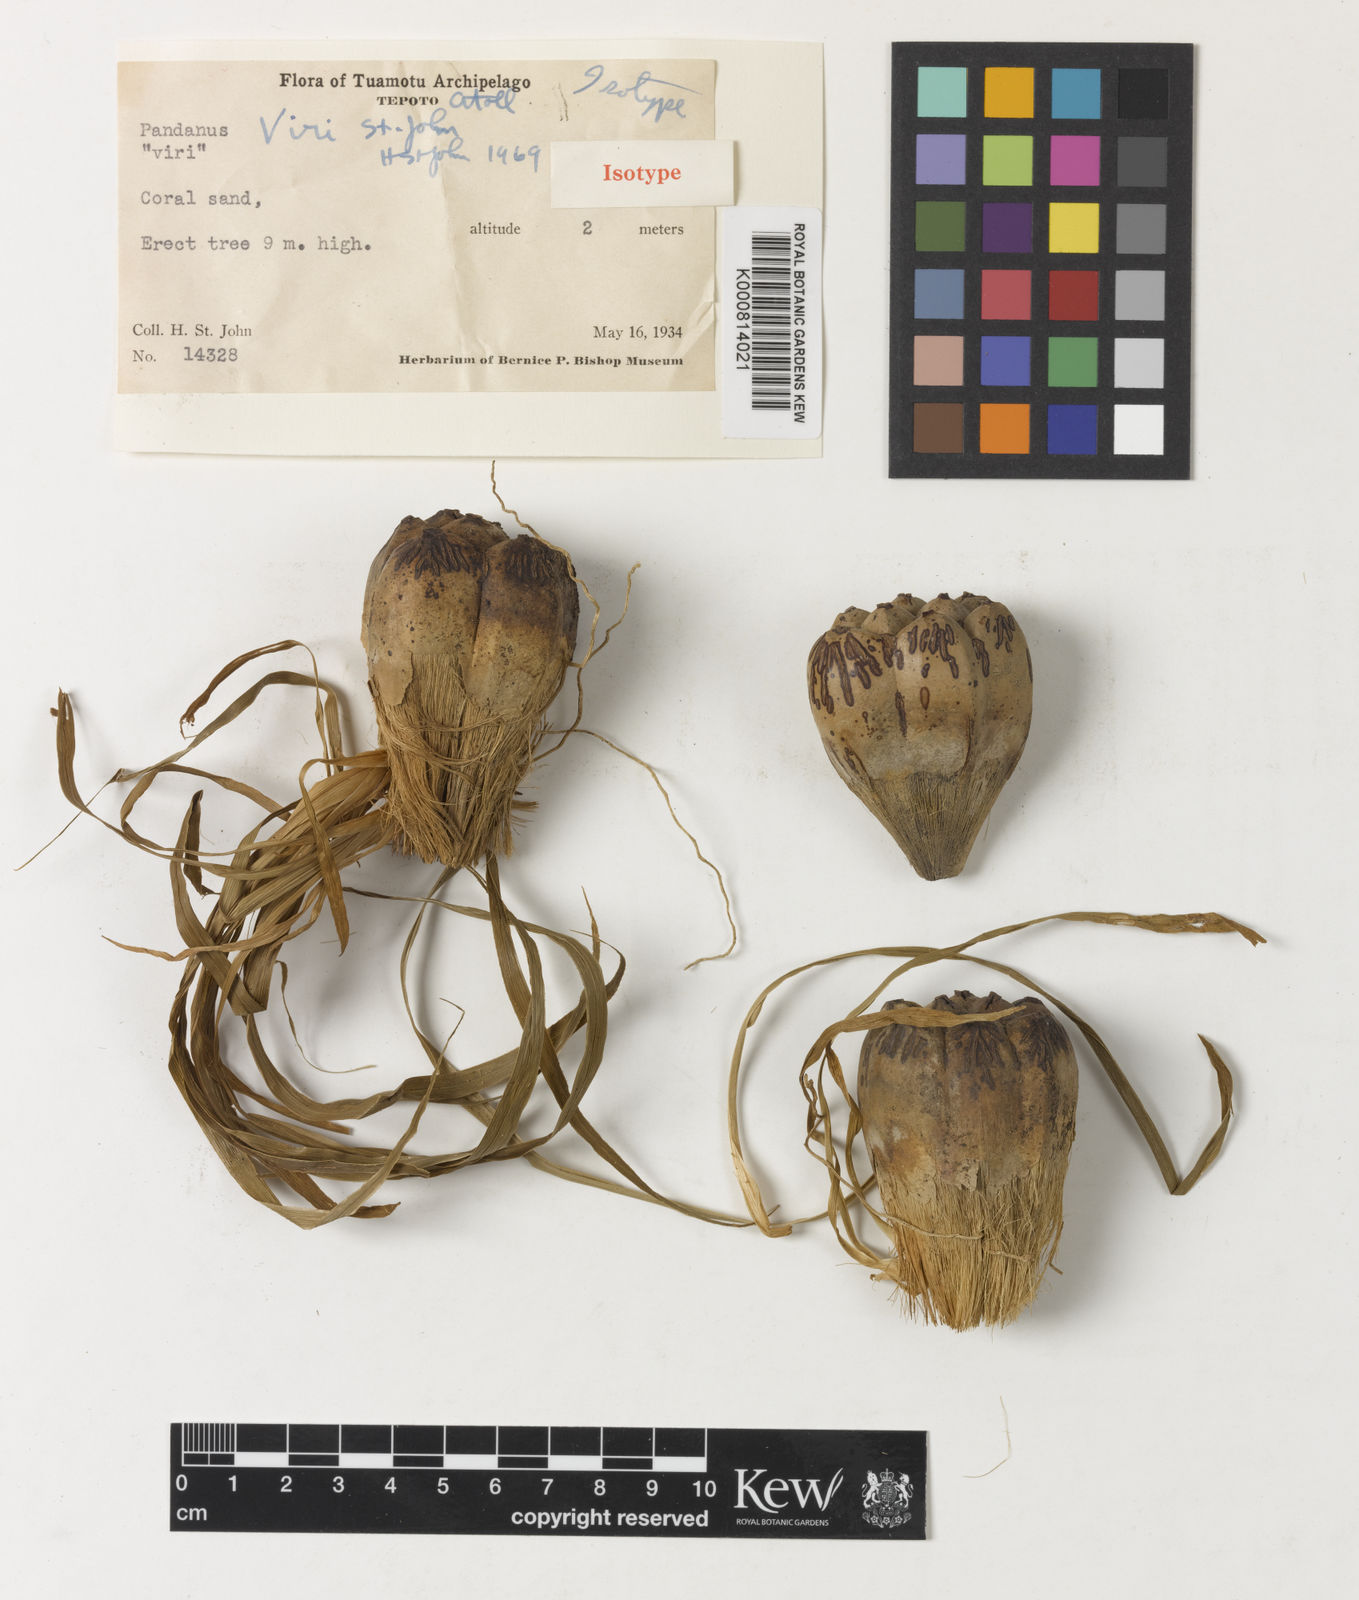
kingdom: Plantae
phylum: Tracheophyta
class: Liliopsida
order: Pandanales
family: Pandanaceae
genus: Pandanus
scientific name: Pandanus tectorius
